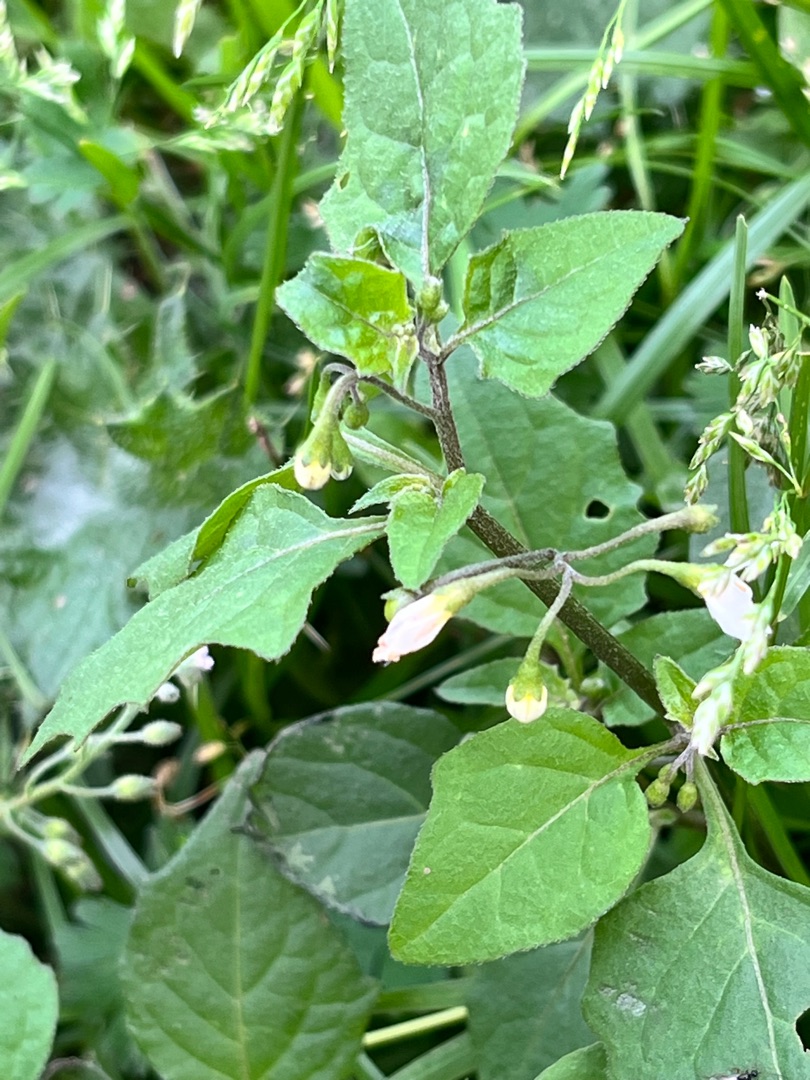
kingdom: Plantae
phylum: Tracheophyta
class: Magnoliopsida
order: Solanales
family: Solanaceae
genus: Solanum
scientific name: Solanum nigrum
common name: Sort natskygge
